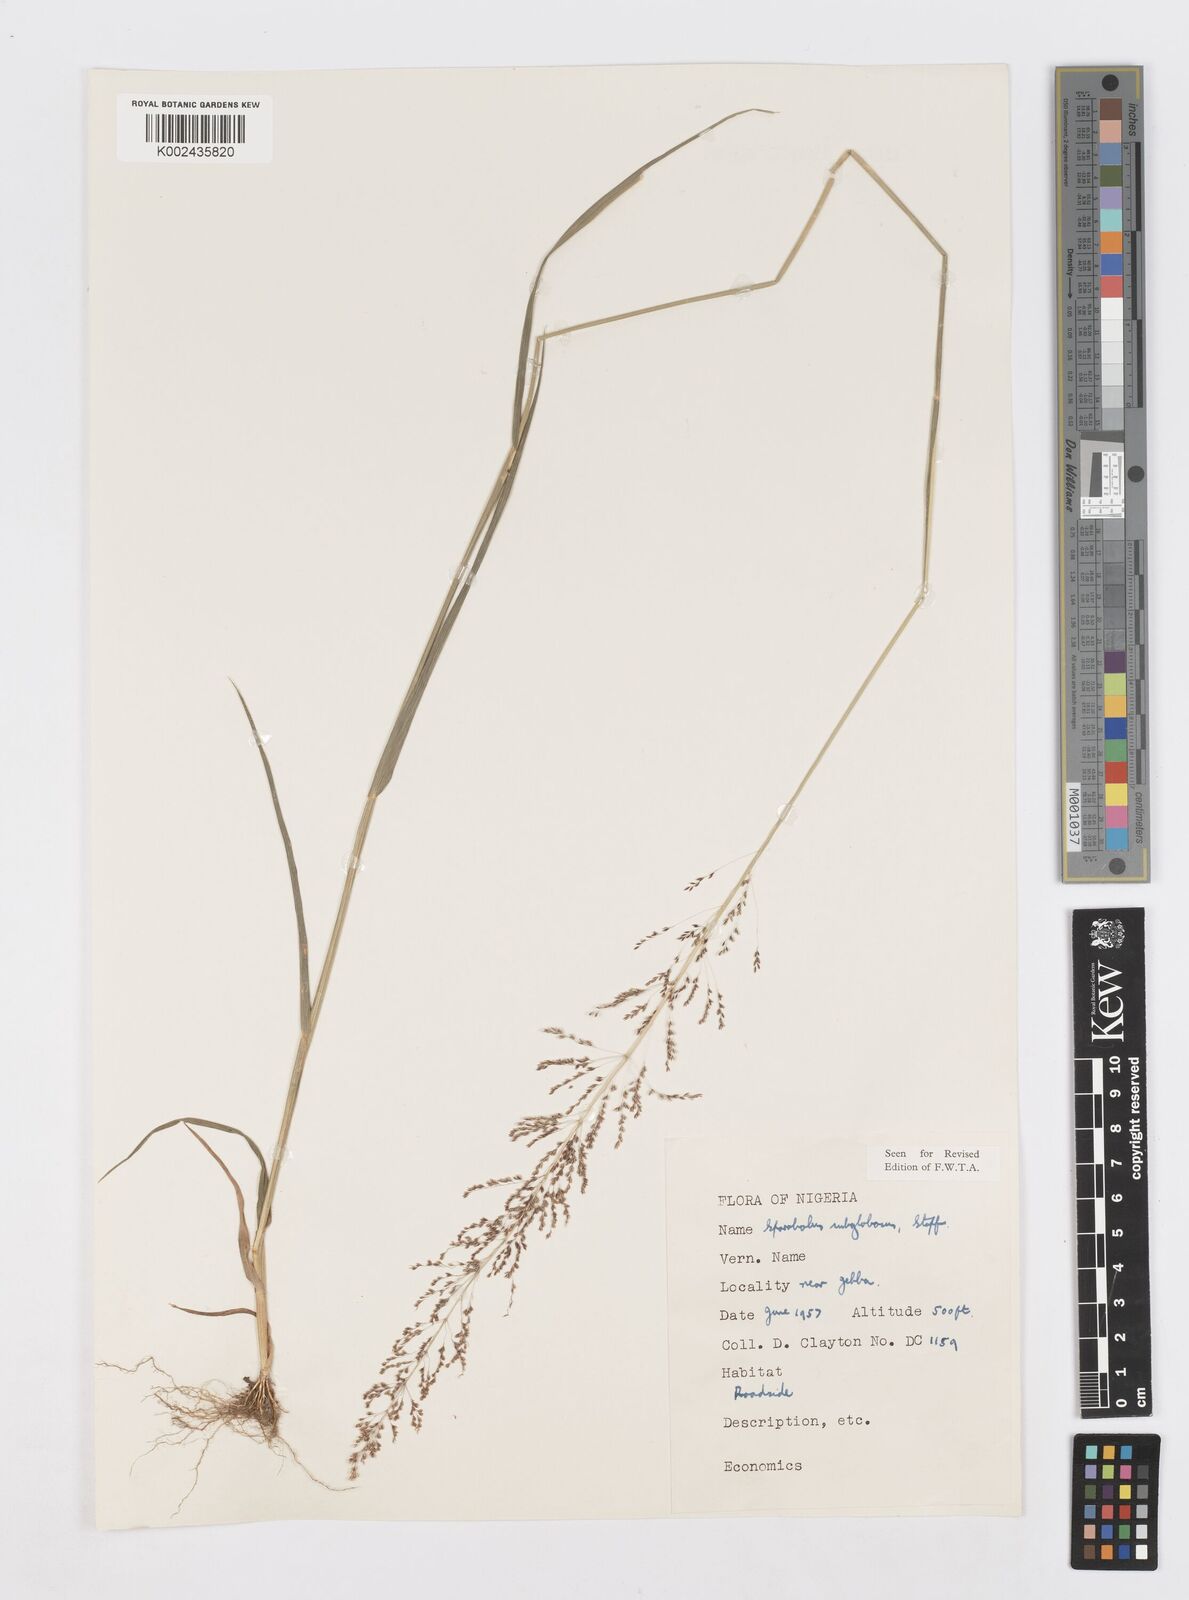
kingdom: Plantae
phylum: Tracheophyta
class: Liliopsida
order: Poales
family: Poaceae
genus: Sporobolus
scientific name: Sporobolus subglobosus
